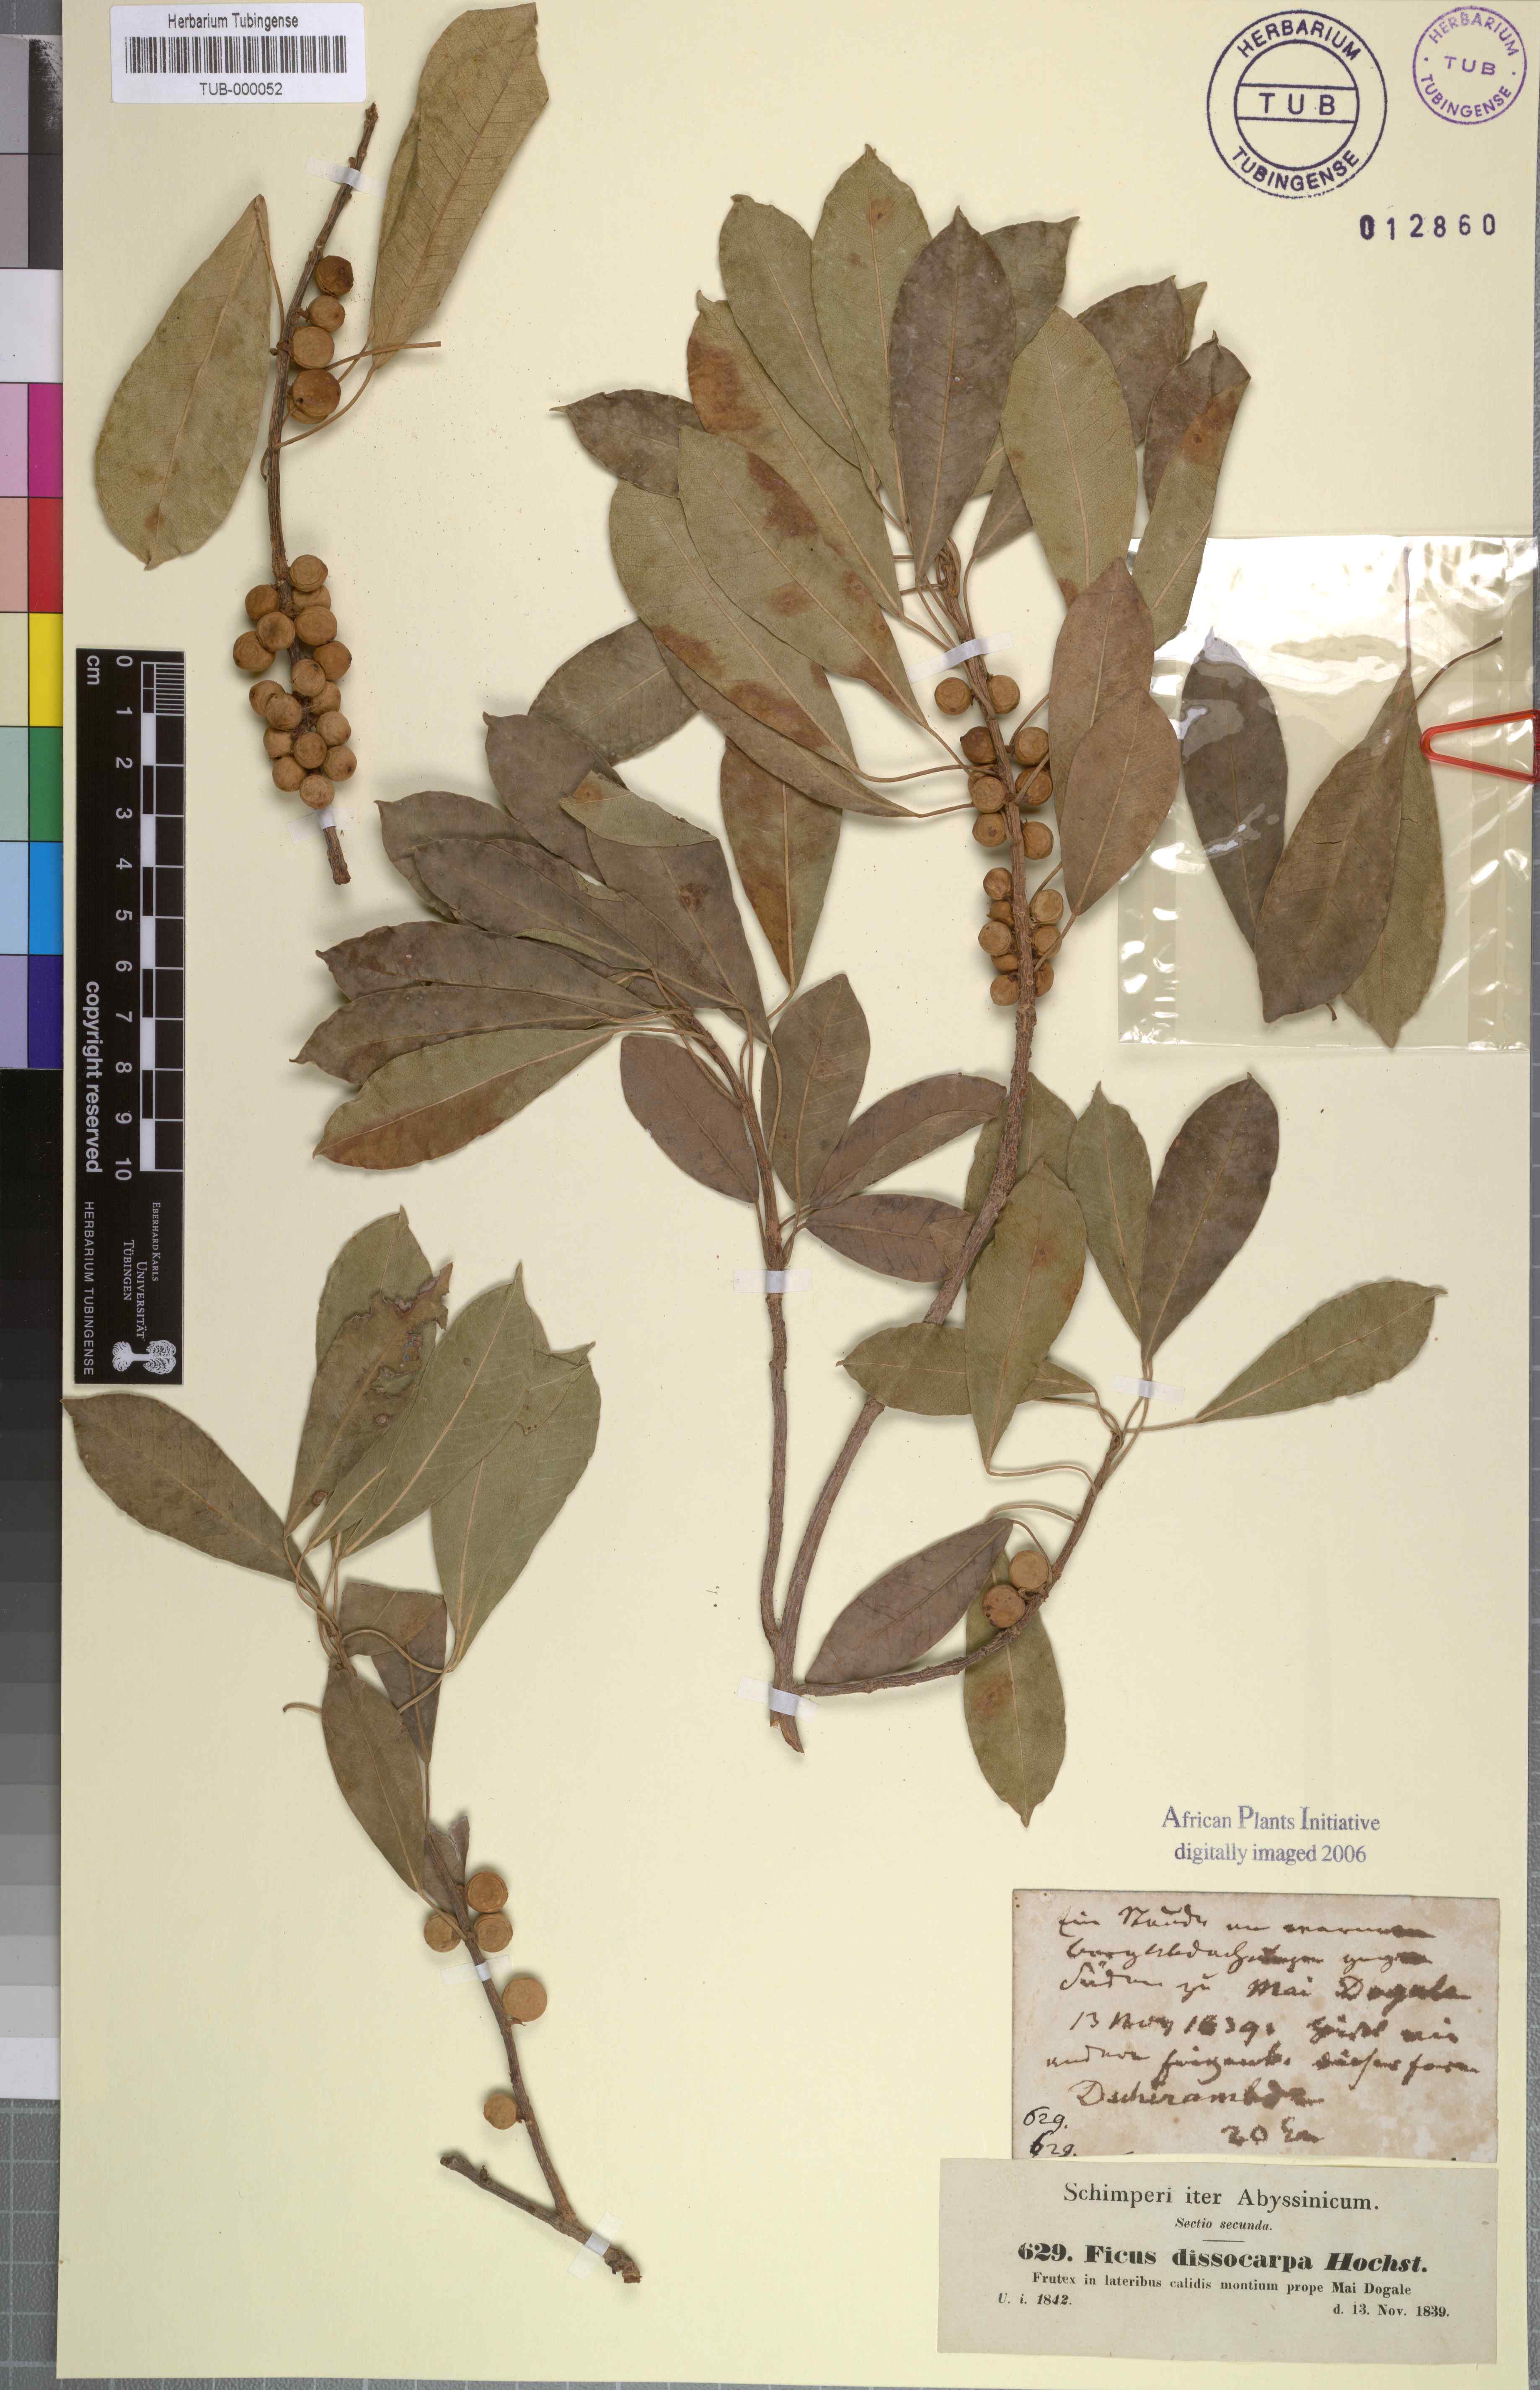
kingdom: Plantae
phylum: Tracheophyta
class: Magnoliopsida
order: Rosales
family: Moraceae
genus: Ficus
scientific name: Ficus thonningii
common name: Fig
